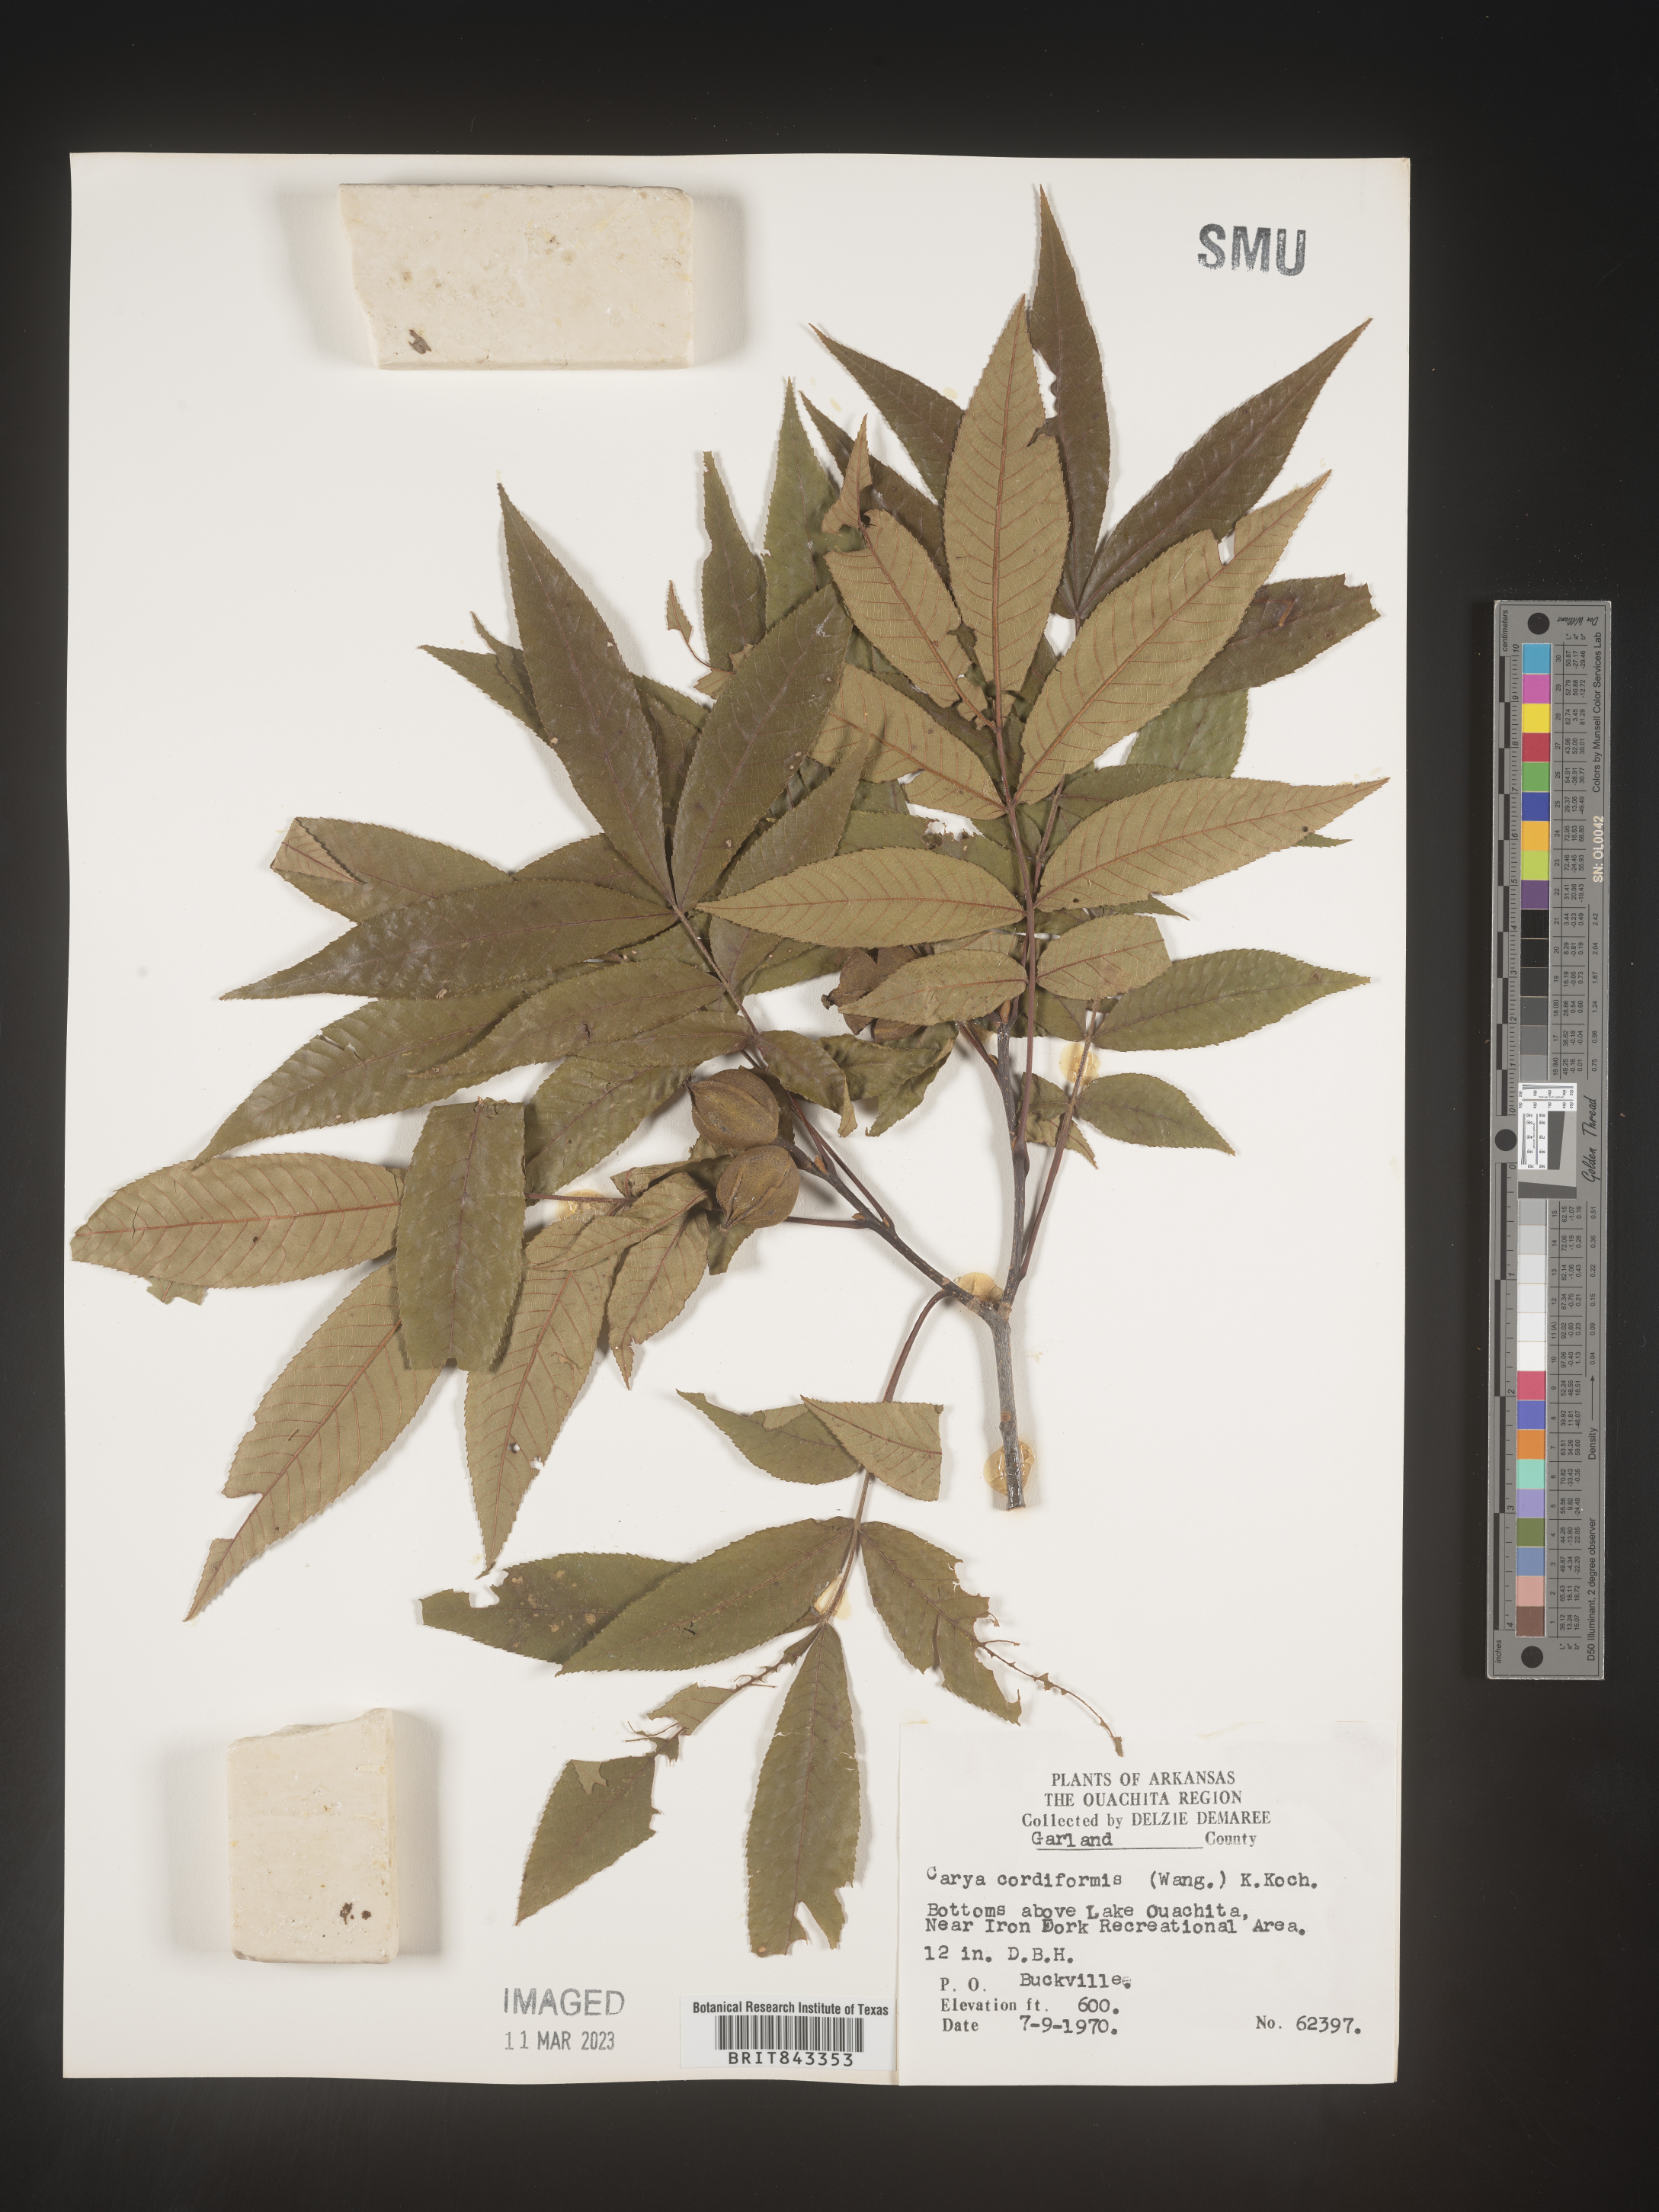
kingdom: Plantae
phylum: Tracheophyta
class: Magnoliopsida
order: Fagales
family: Juglandaceae
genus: Carya
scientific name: Carya cordiformis
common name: Bitternut hickory
